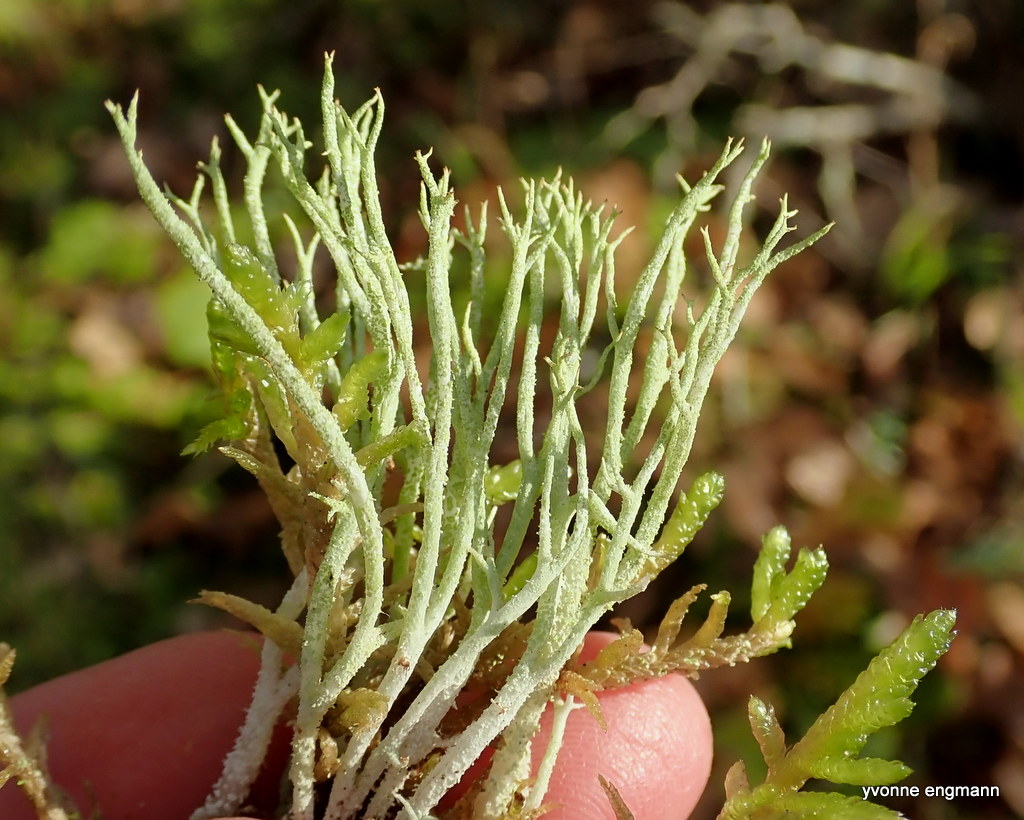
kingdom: Fungi
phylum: Ascomycota
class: Lecanoromycetes
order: Lecanorales
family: Cladoniaceae
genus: Cladonia
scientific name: Cladonia scabriuscula
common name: ru bægerlav
